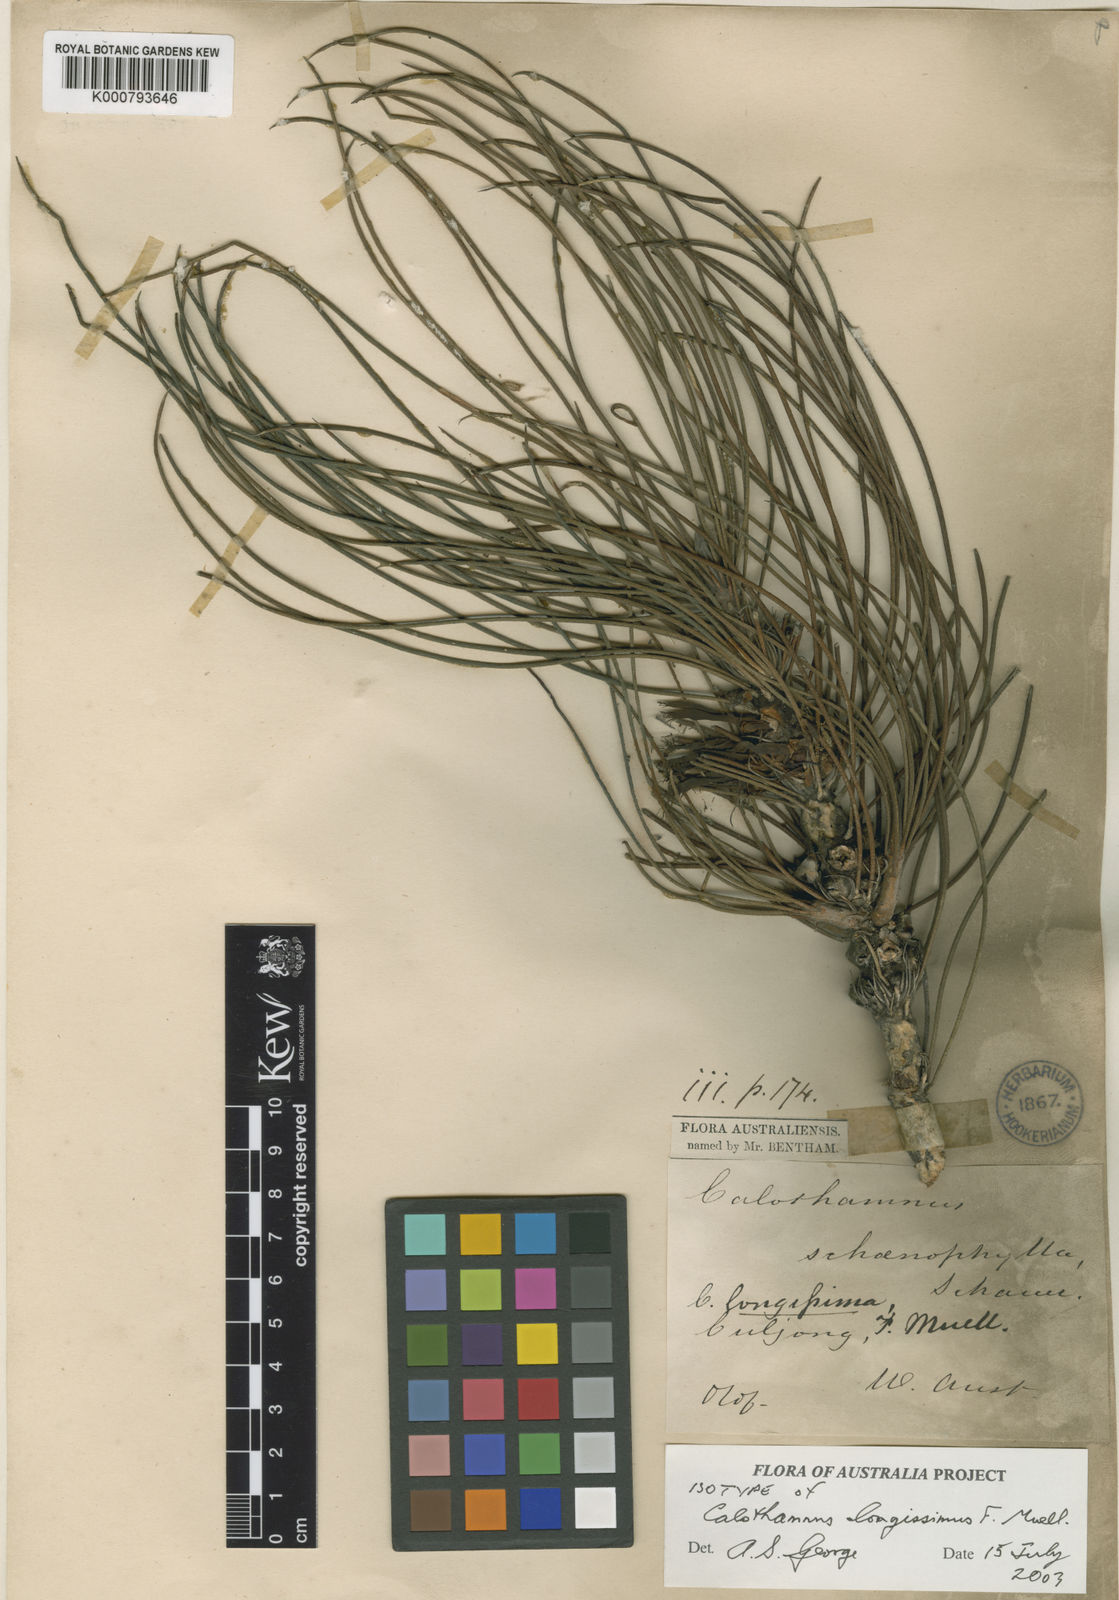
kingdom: Plantae
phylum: Tracheophyta
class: Magnoliopsida
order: Myrtales
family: Myrtaceae
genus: Melaleuca
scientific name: Melaleuca longissima
